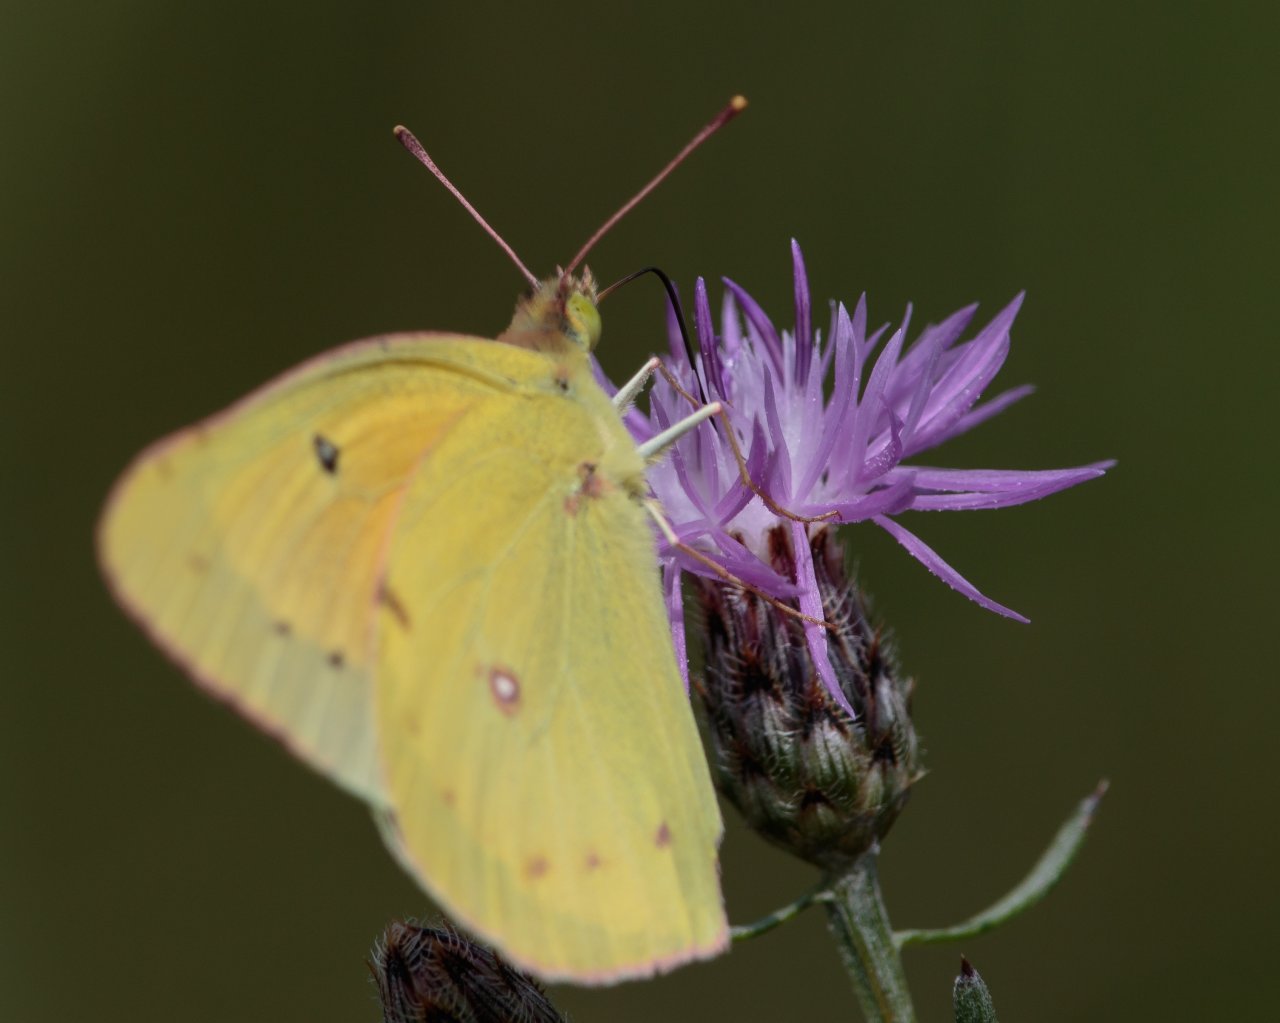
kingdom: Animalia
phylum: Arthropoda
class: Insecta
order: Lepidoptera
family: Pieridae
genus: Colias
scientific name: Colias eurytheme
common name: Orange Sulphur
